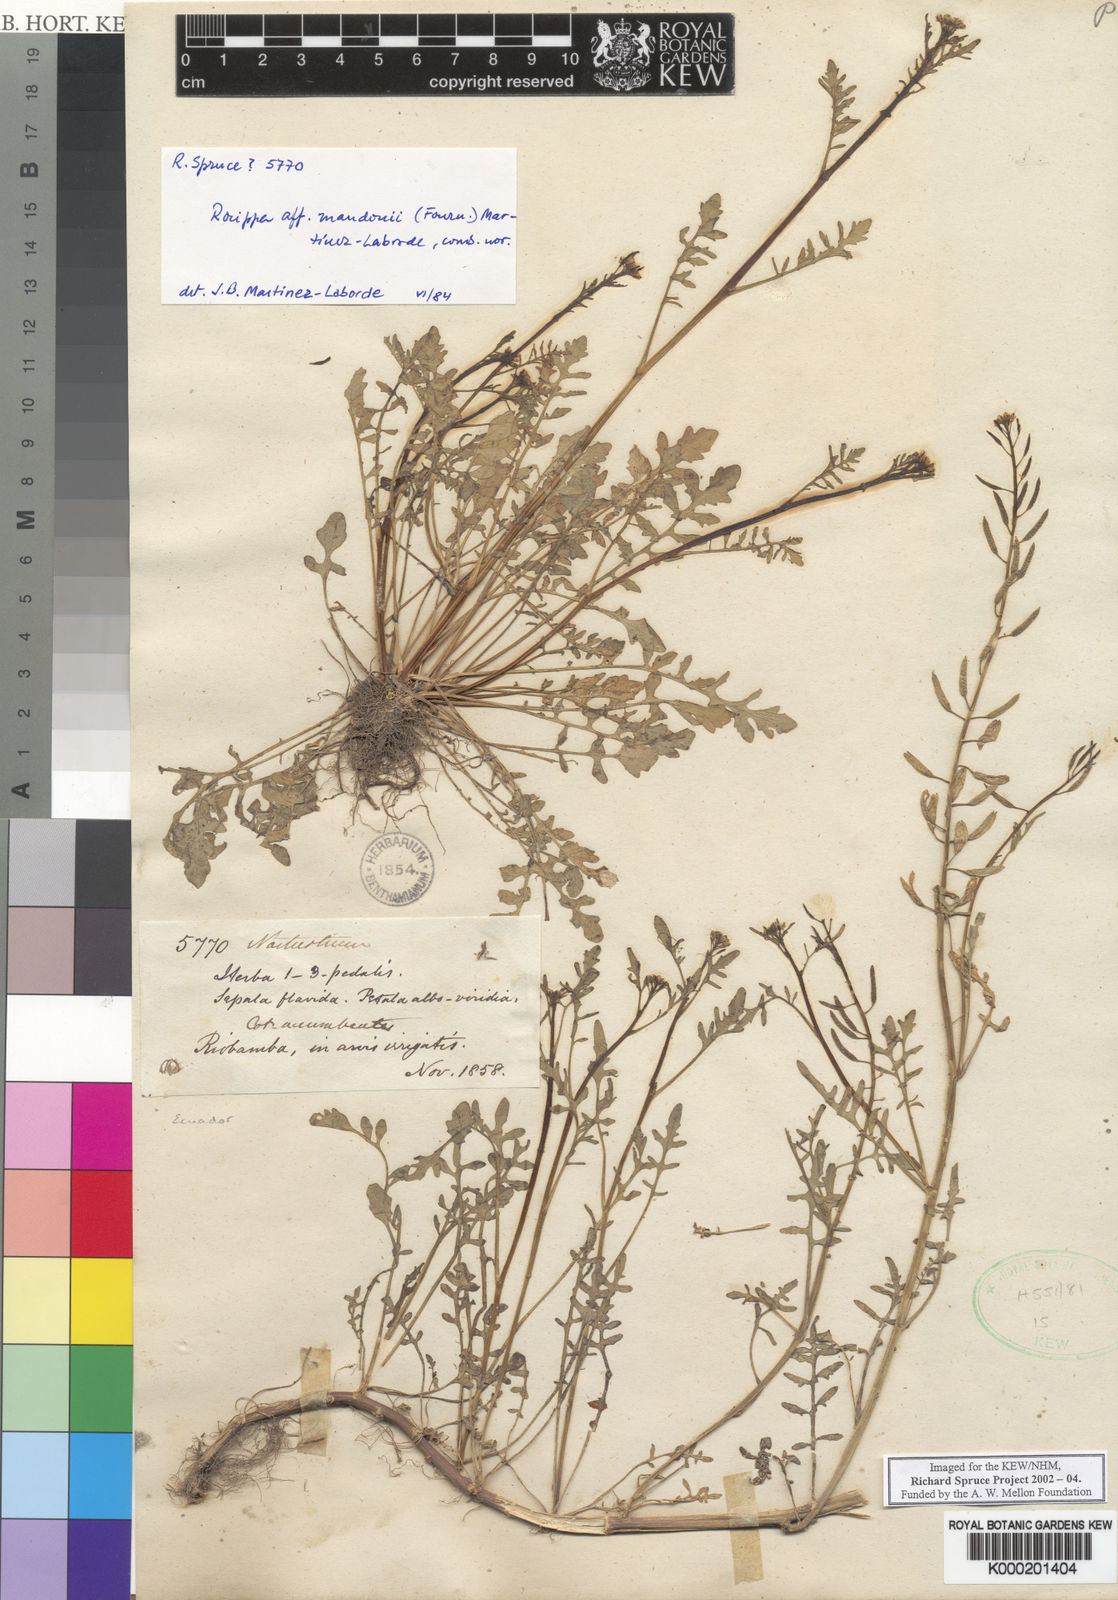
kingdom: Plantae
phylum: Tracheophyta
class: Magnoliopsida
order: Brassicales
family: Brassicaceae
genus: Rorippa
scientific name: Rorippa mandonii
